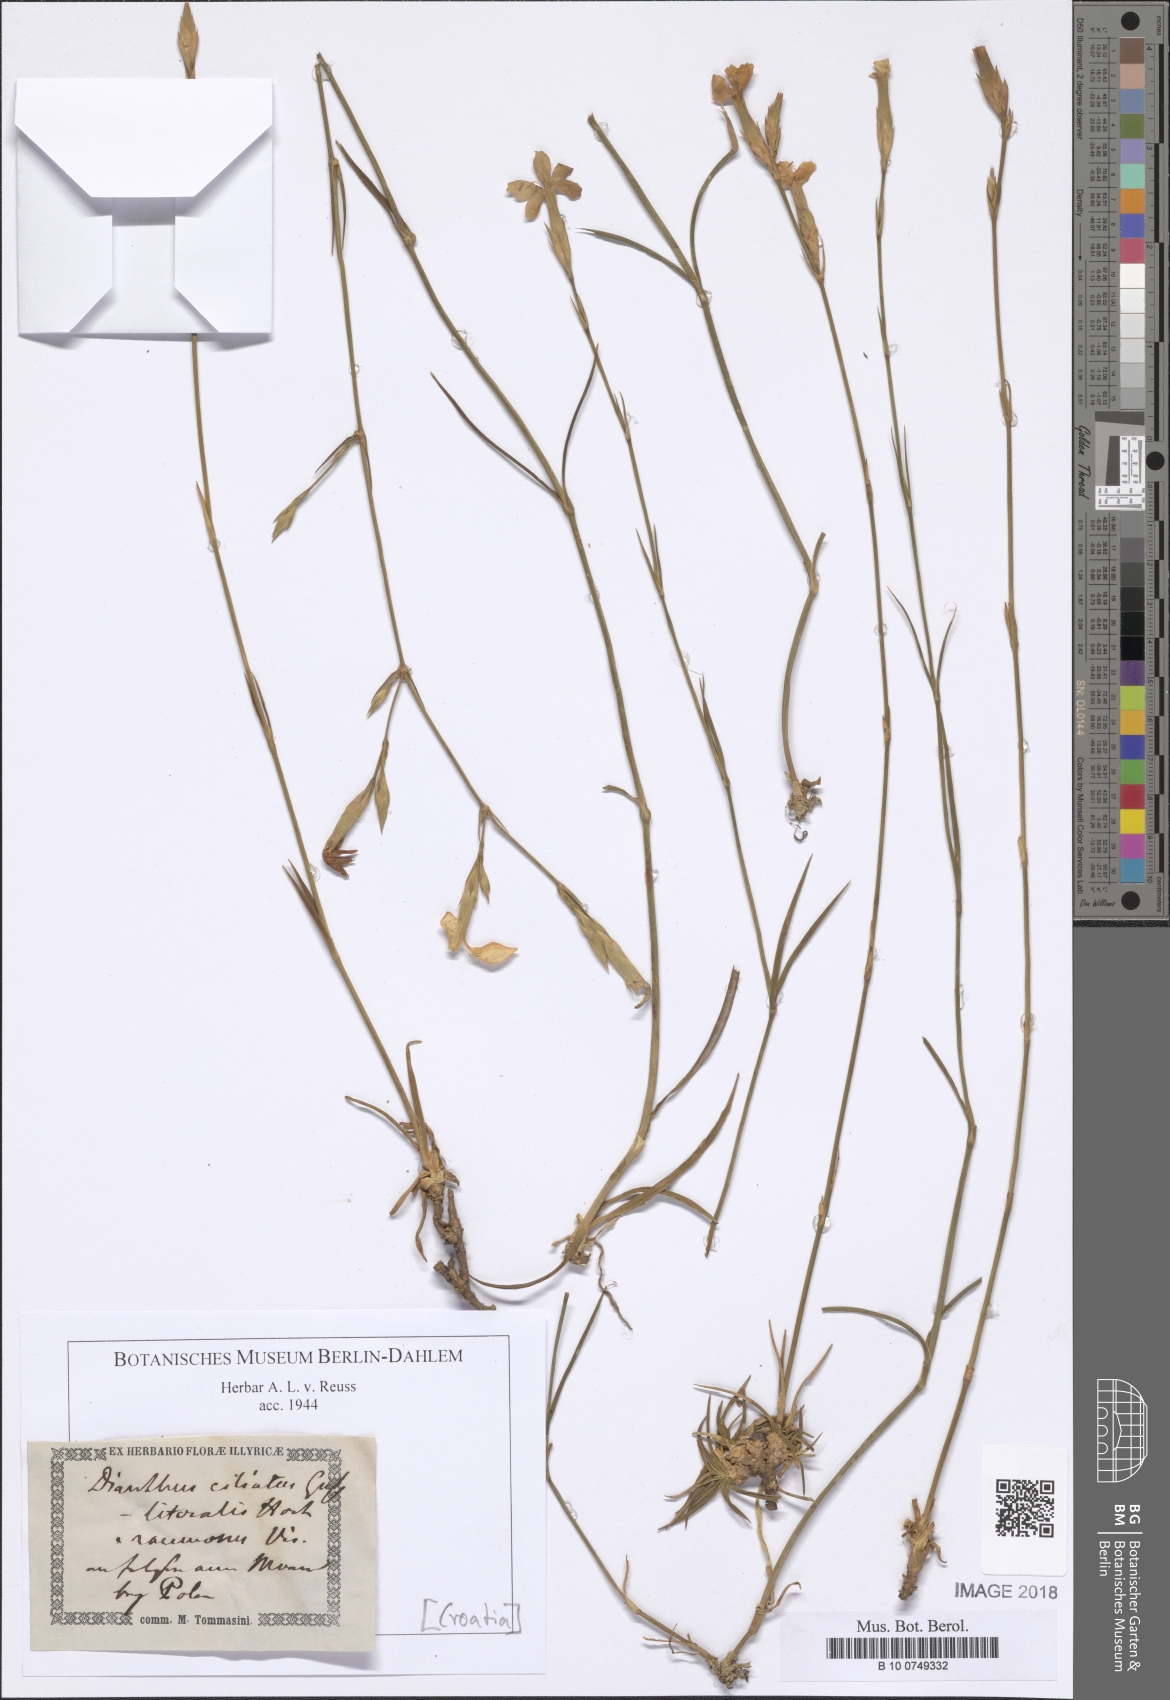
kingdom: Plantae
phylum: Tracheophyta
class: Magnoliopsida
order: Caryophyllales
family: Caryophyllaceae
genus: Dianthus
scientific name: Dianthus ciliatus
